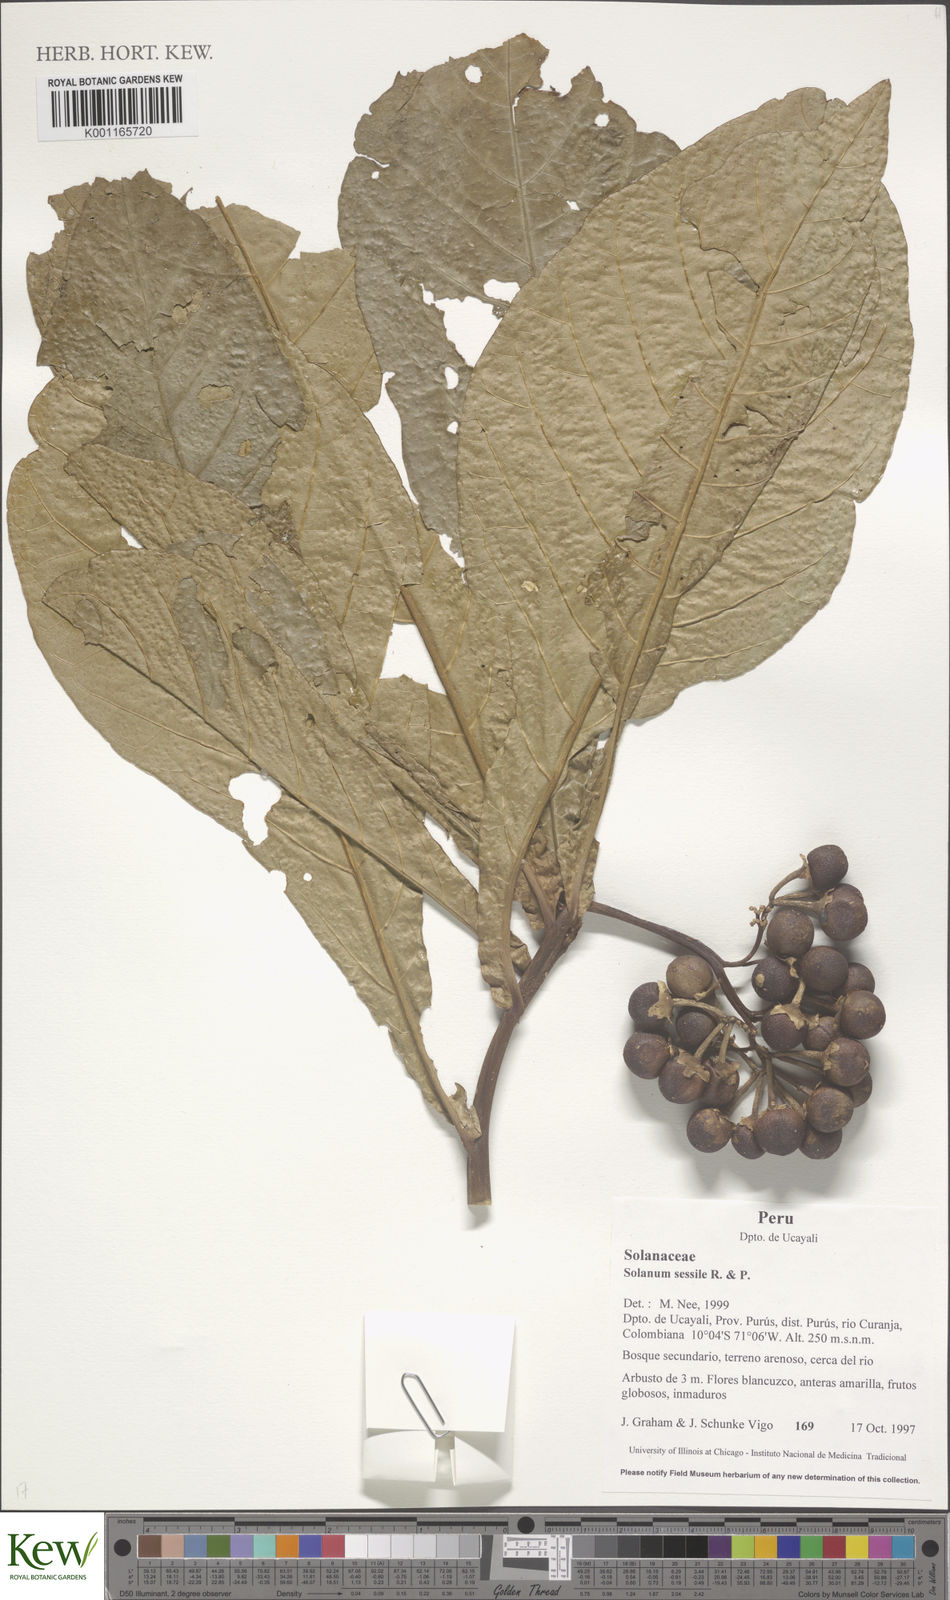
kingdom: Plantae
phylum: Tracheophyta
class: Magnoliopsida
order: Solanales
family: Solanaceae
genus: Solanum
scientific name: Solanum sessile
